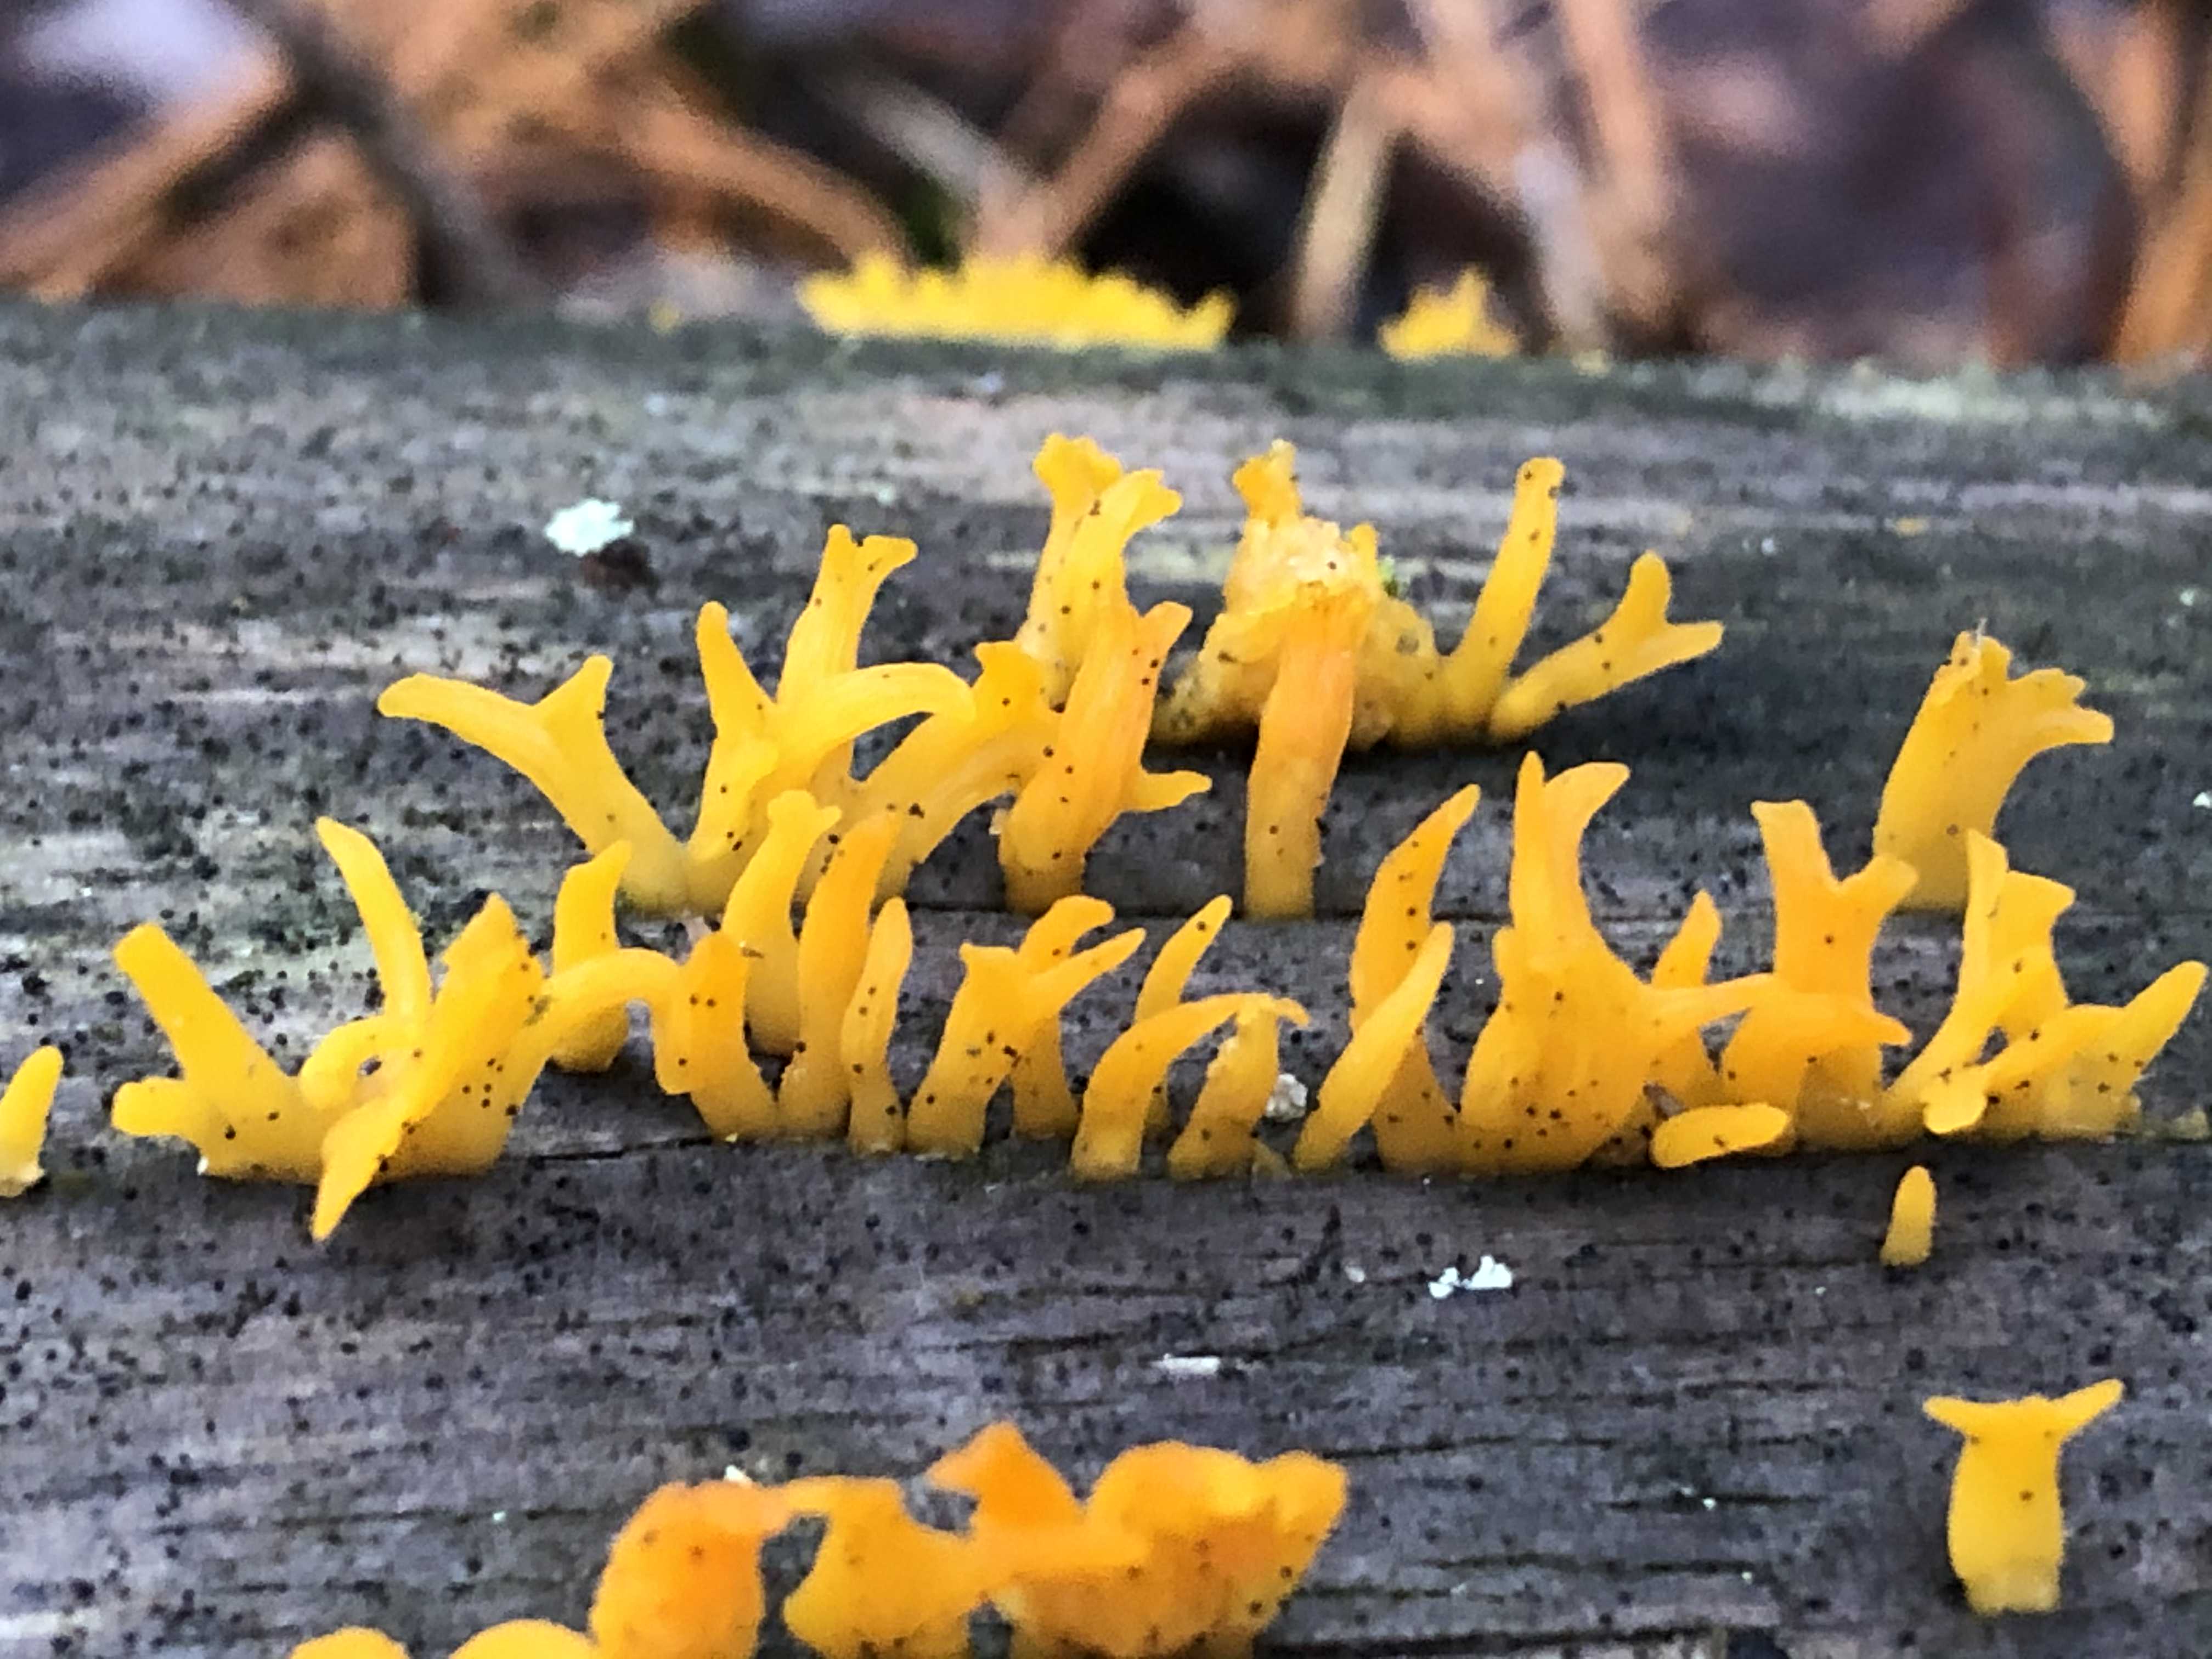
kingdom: Fungi
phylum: Basidiomycota
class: Dacrymycetes
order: Dacrymycetales
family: Dacrymycetaceae
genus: Calocera
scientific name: Calocera furcata
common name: fyrre-guldgaffel
